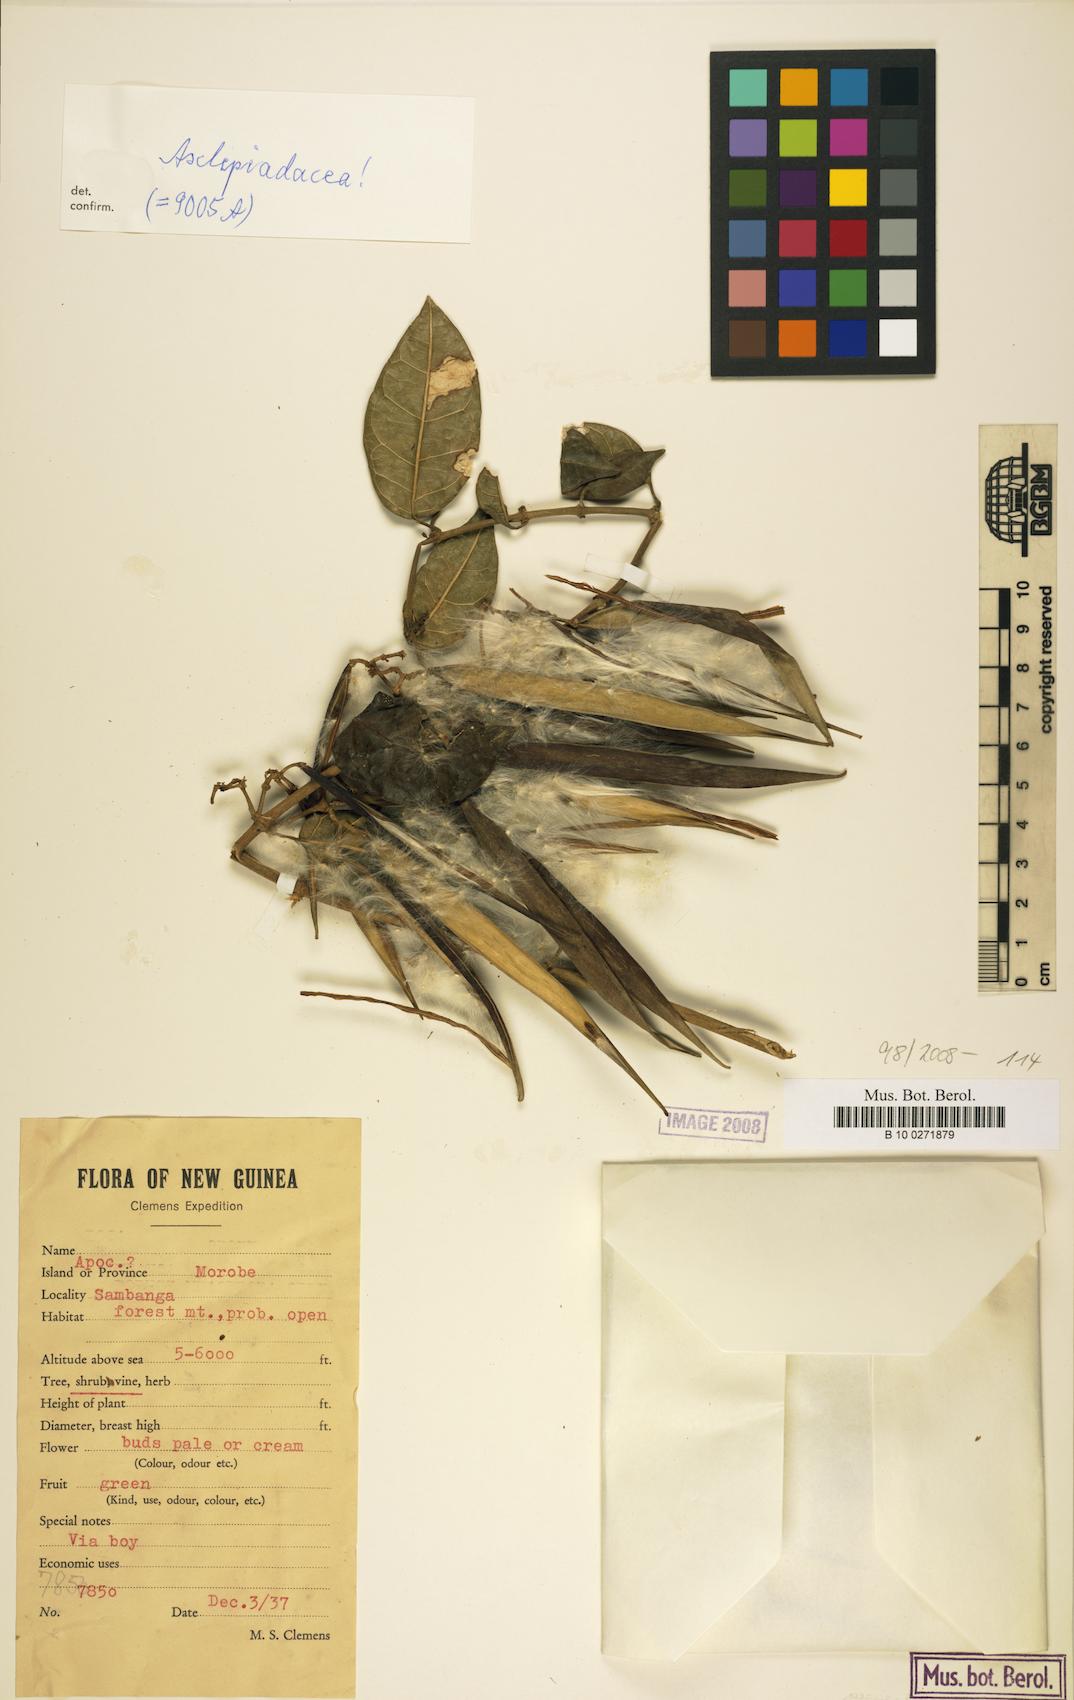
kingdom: Plantae
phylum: Tracheophyta
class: Magnoliopsida
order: Gentianales
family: Asclepiadaceae
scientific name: Asclepiadaceae
